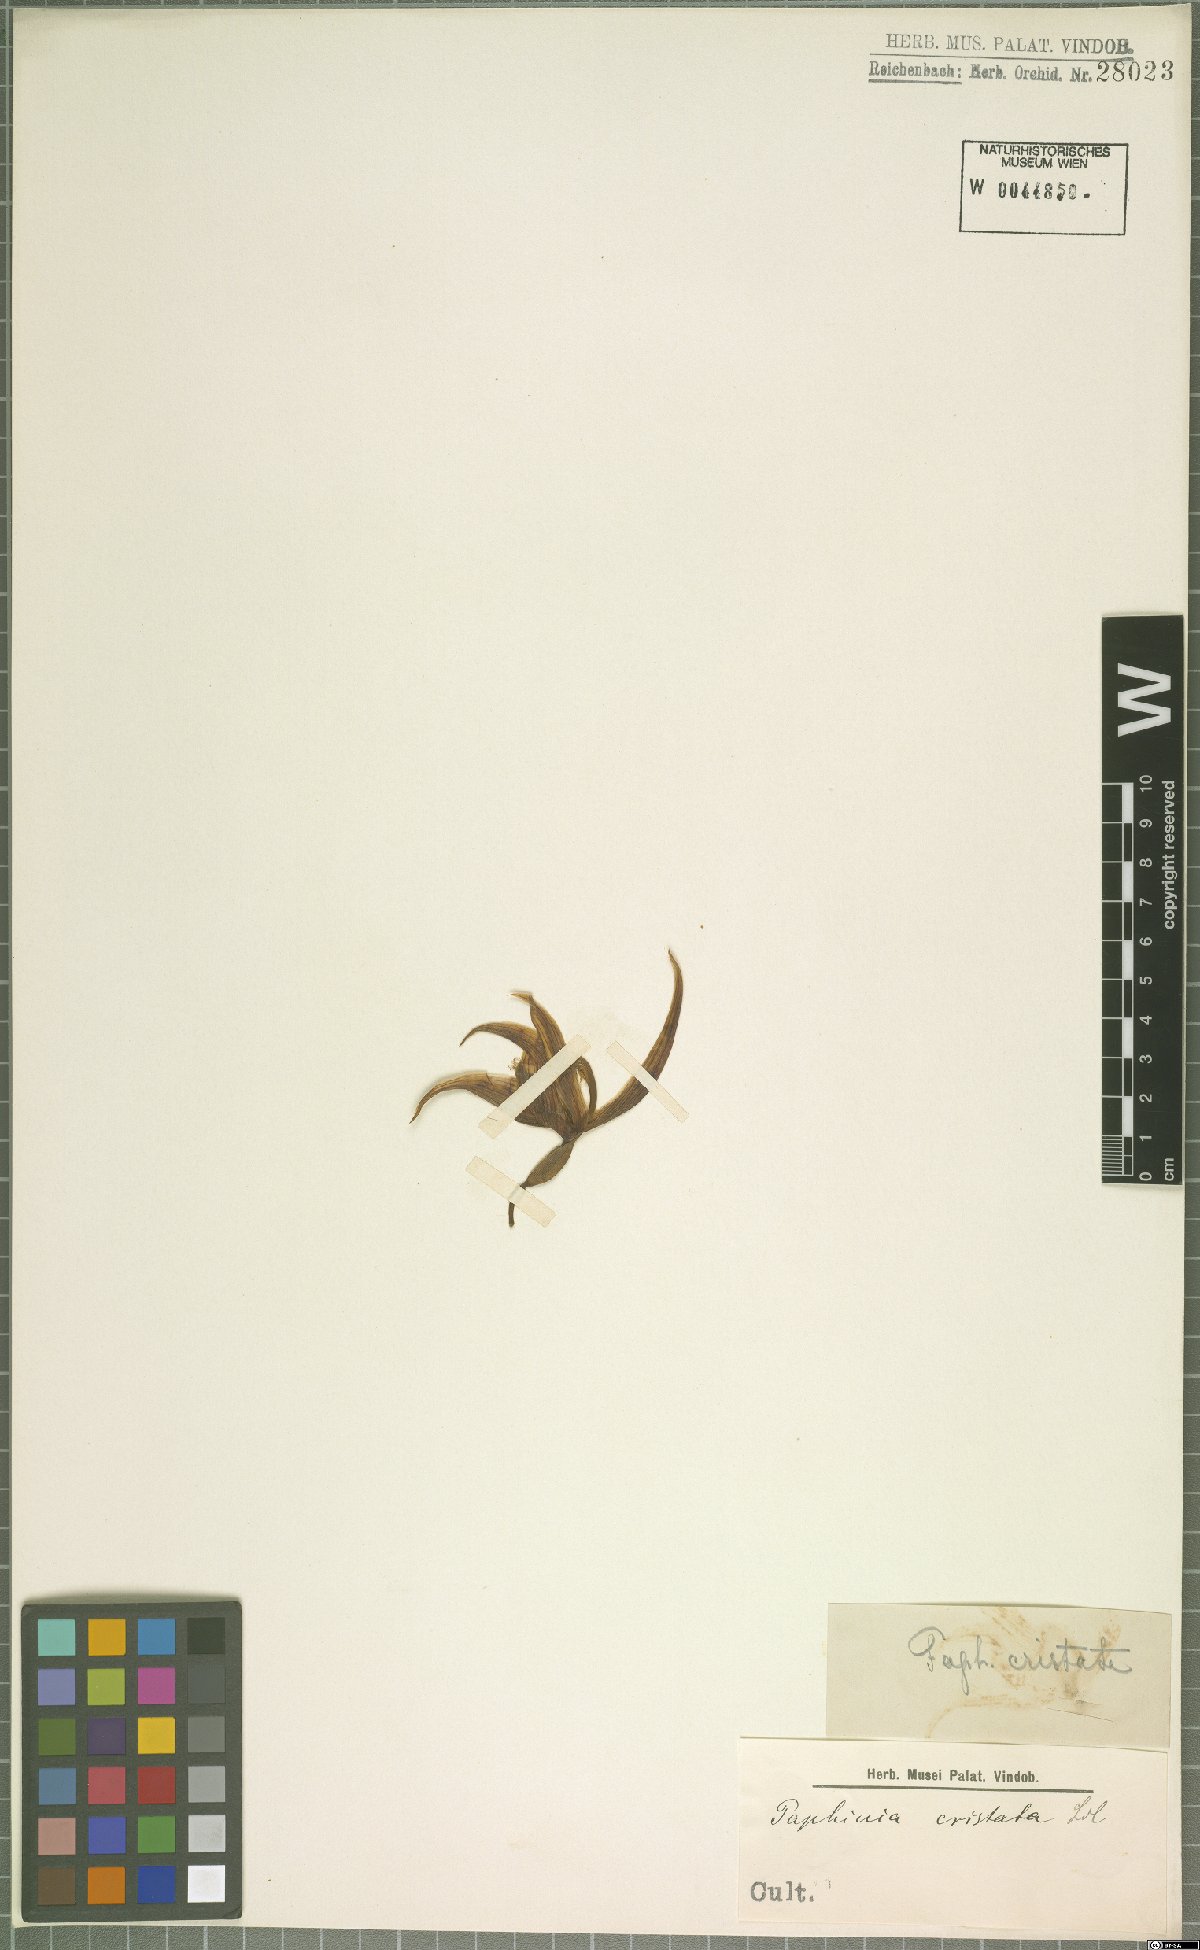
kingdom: Plantae
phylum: Tracheophyta
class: Liliopsida
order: Asparagales
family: Orchidaceae
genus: Paphinia
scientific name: Paphinia cristata
